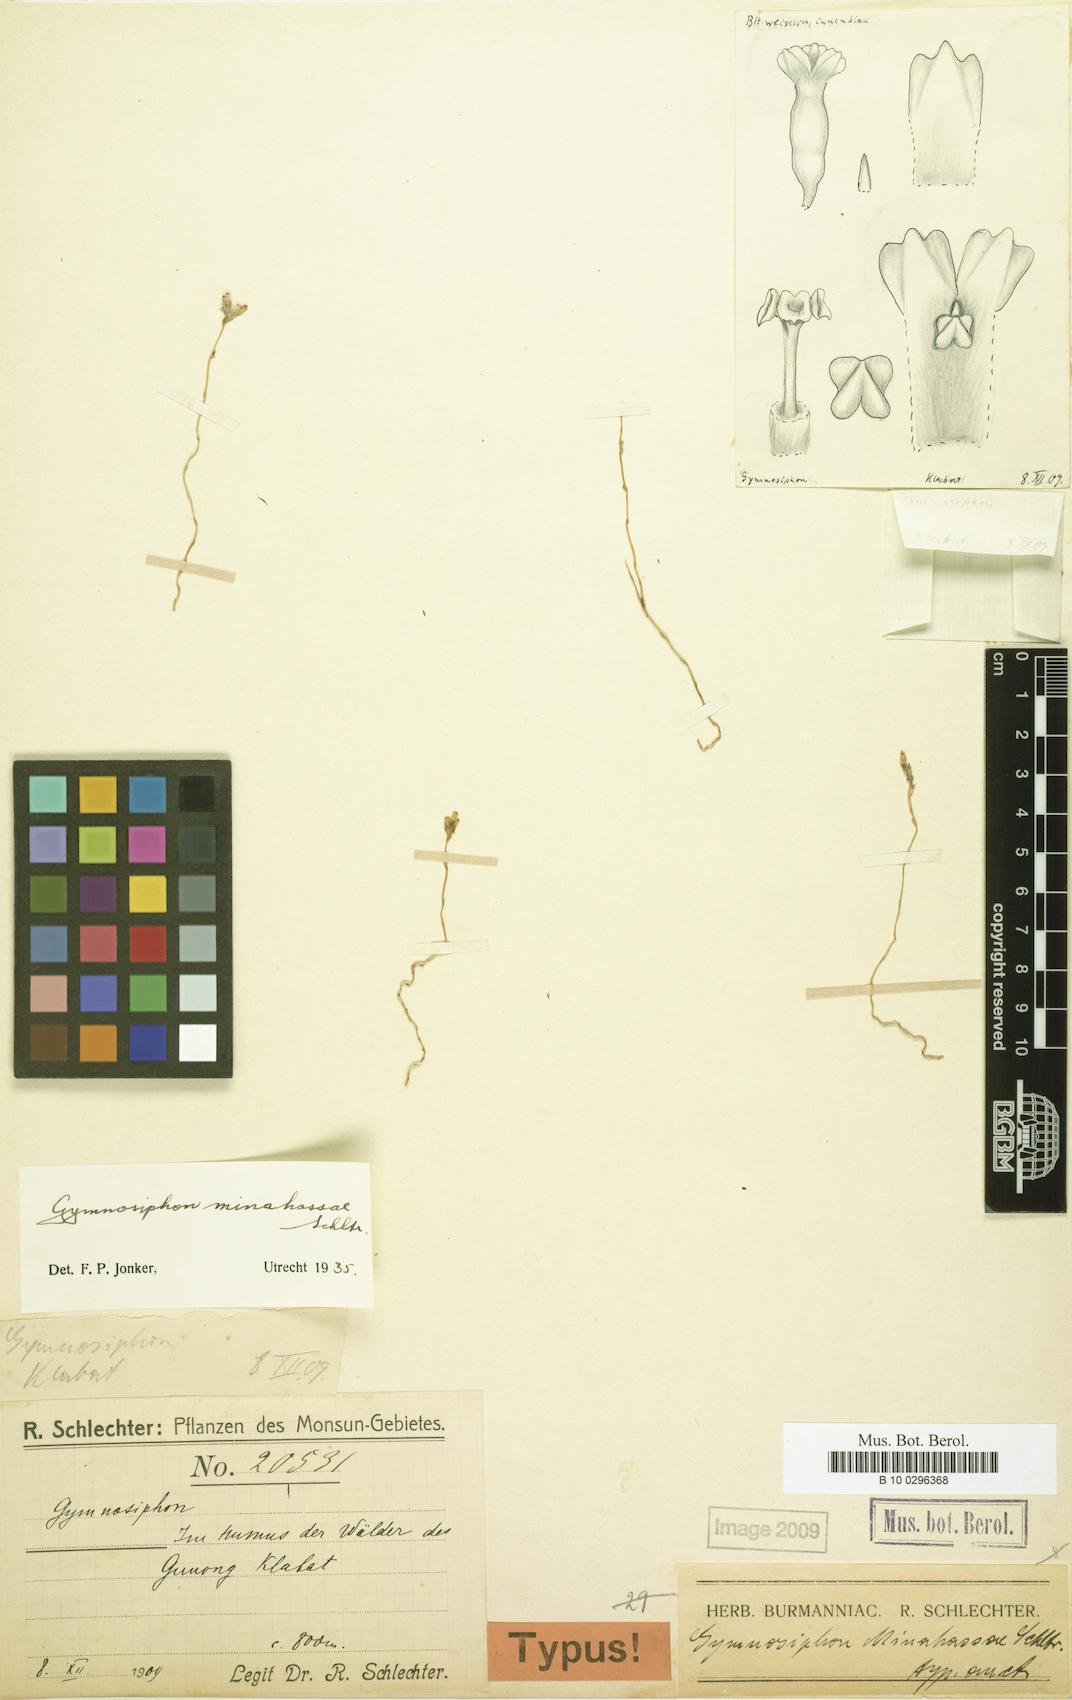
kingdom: Plantae
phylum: Tracheophyta
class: Liliopsida
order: Dioscoreales
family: Burmanniaceae
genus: Gymnosiphon
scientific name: Gymnosiphon minahassae
